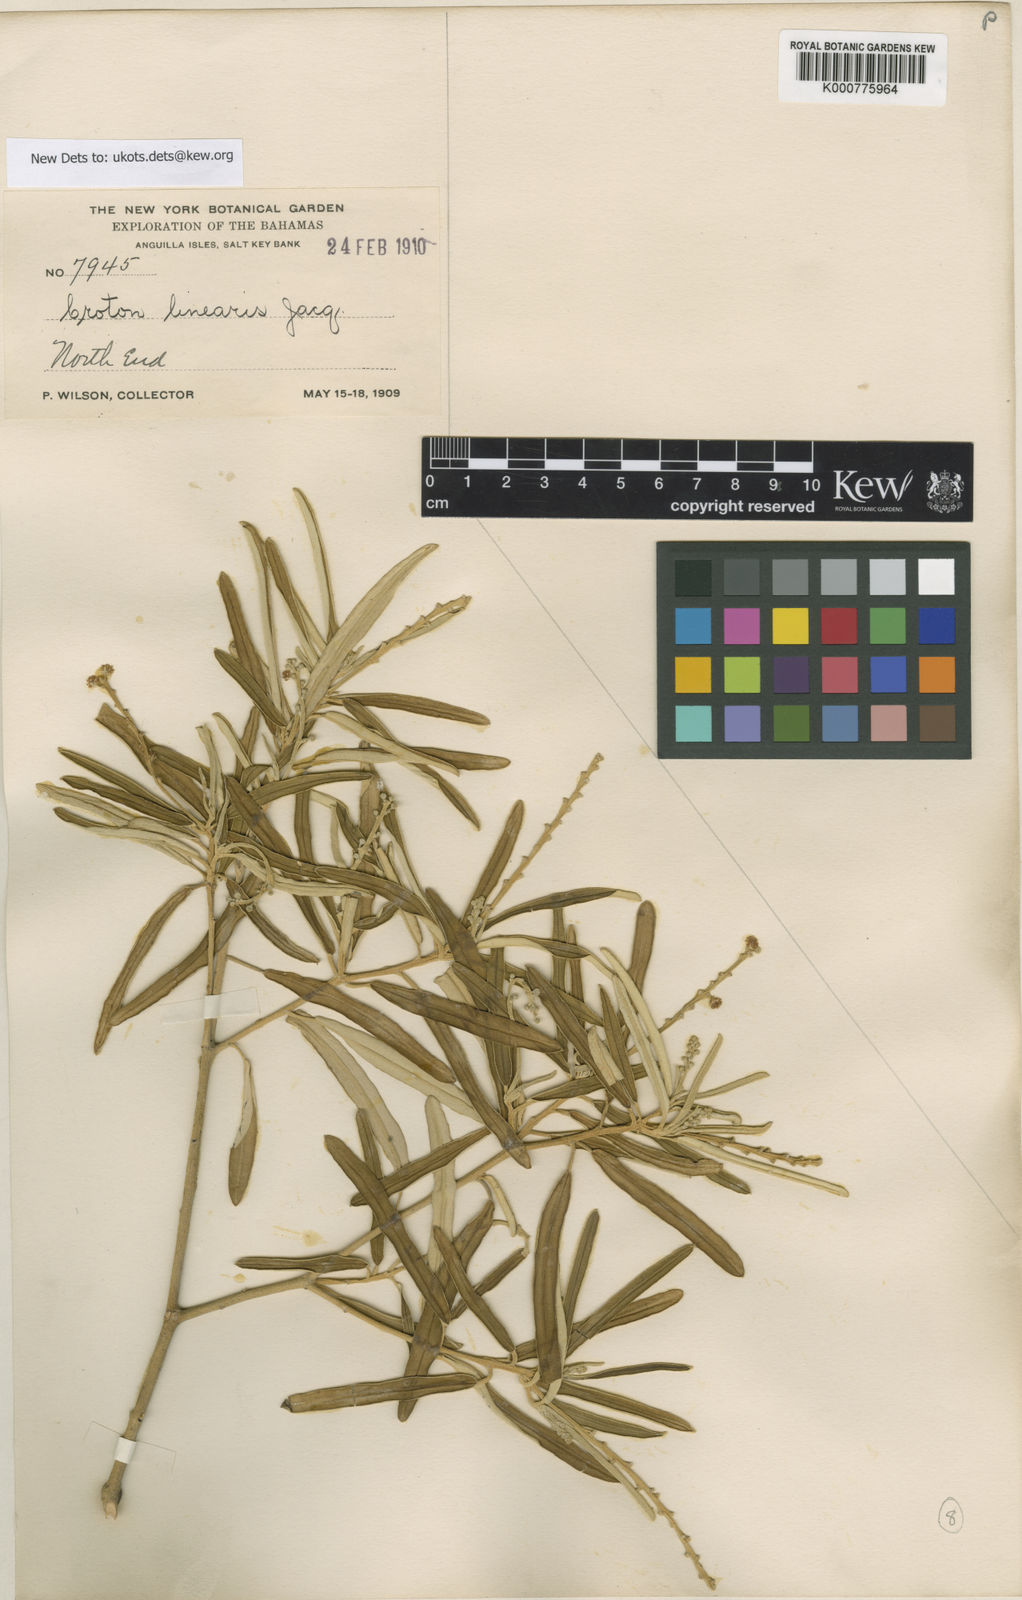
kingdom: Plantae
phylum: Tracheophyta
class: Magnoliopsida
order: Malpighiales
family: Euphorbiaceae
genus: Croton
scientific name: Croton linearis
